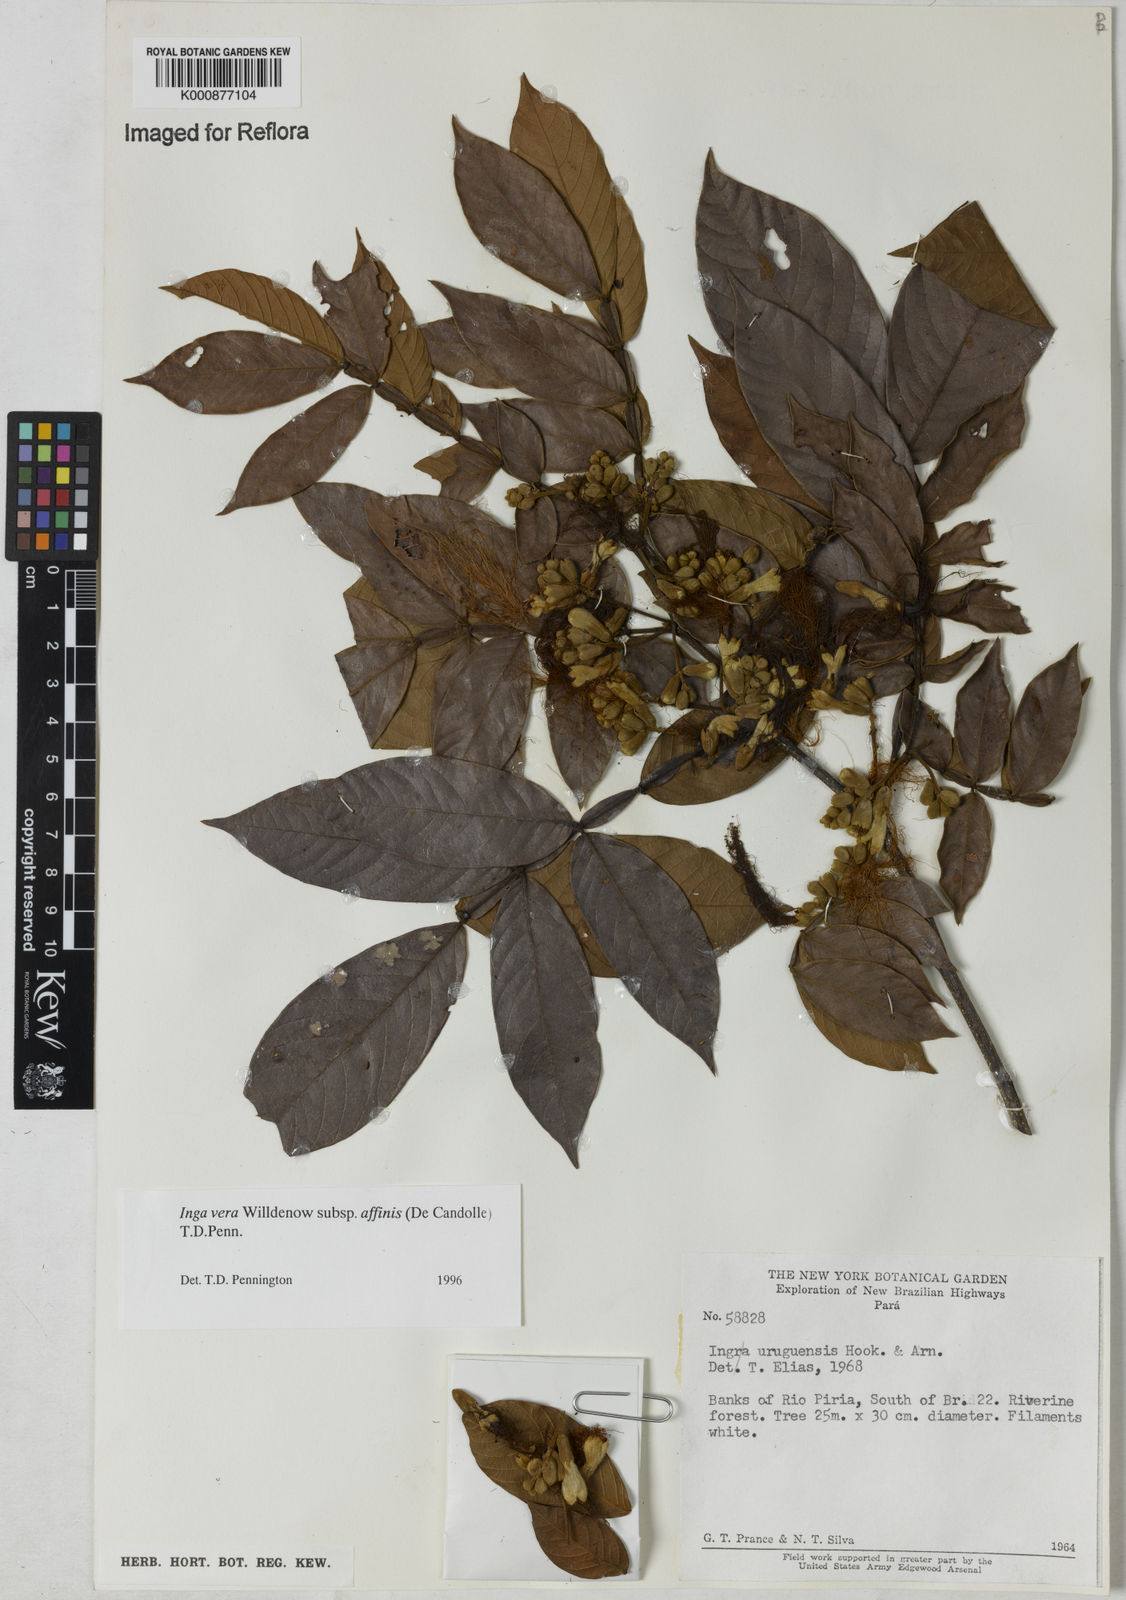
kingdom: Plantae
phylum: Tracheophyta
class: Magnoliopsida
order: Fabales
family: Fabaceae
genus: Inga
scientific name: Inga affinis
